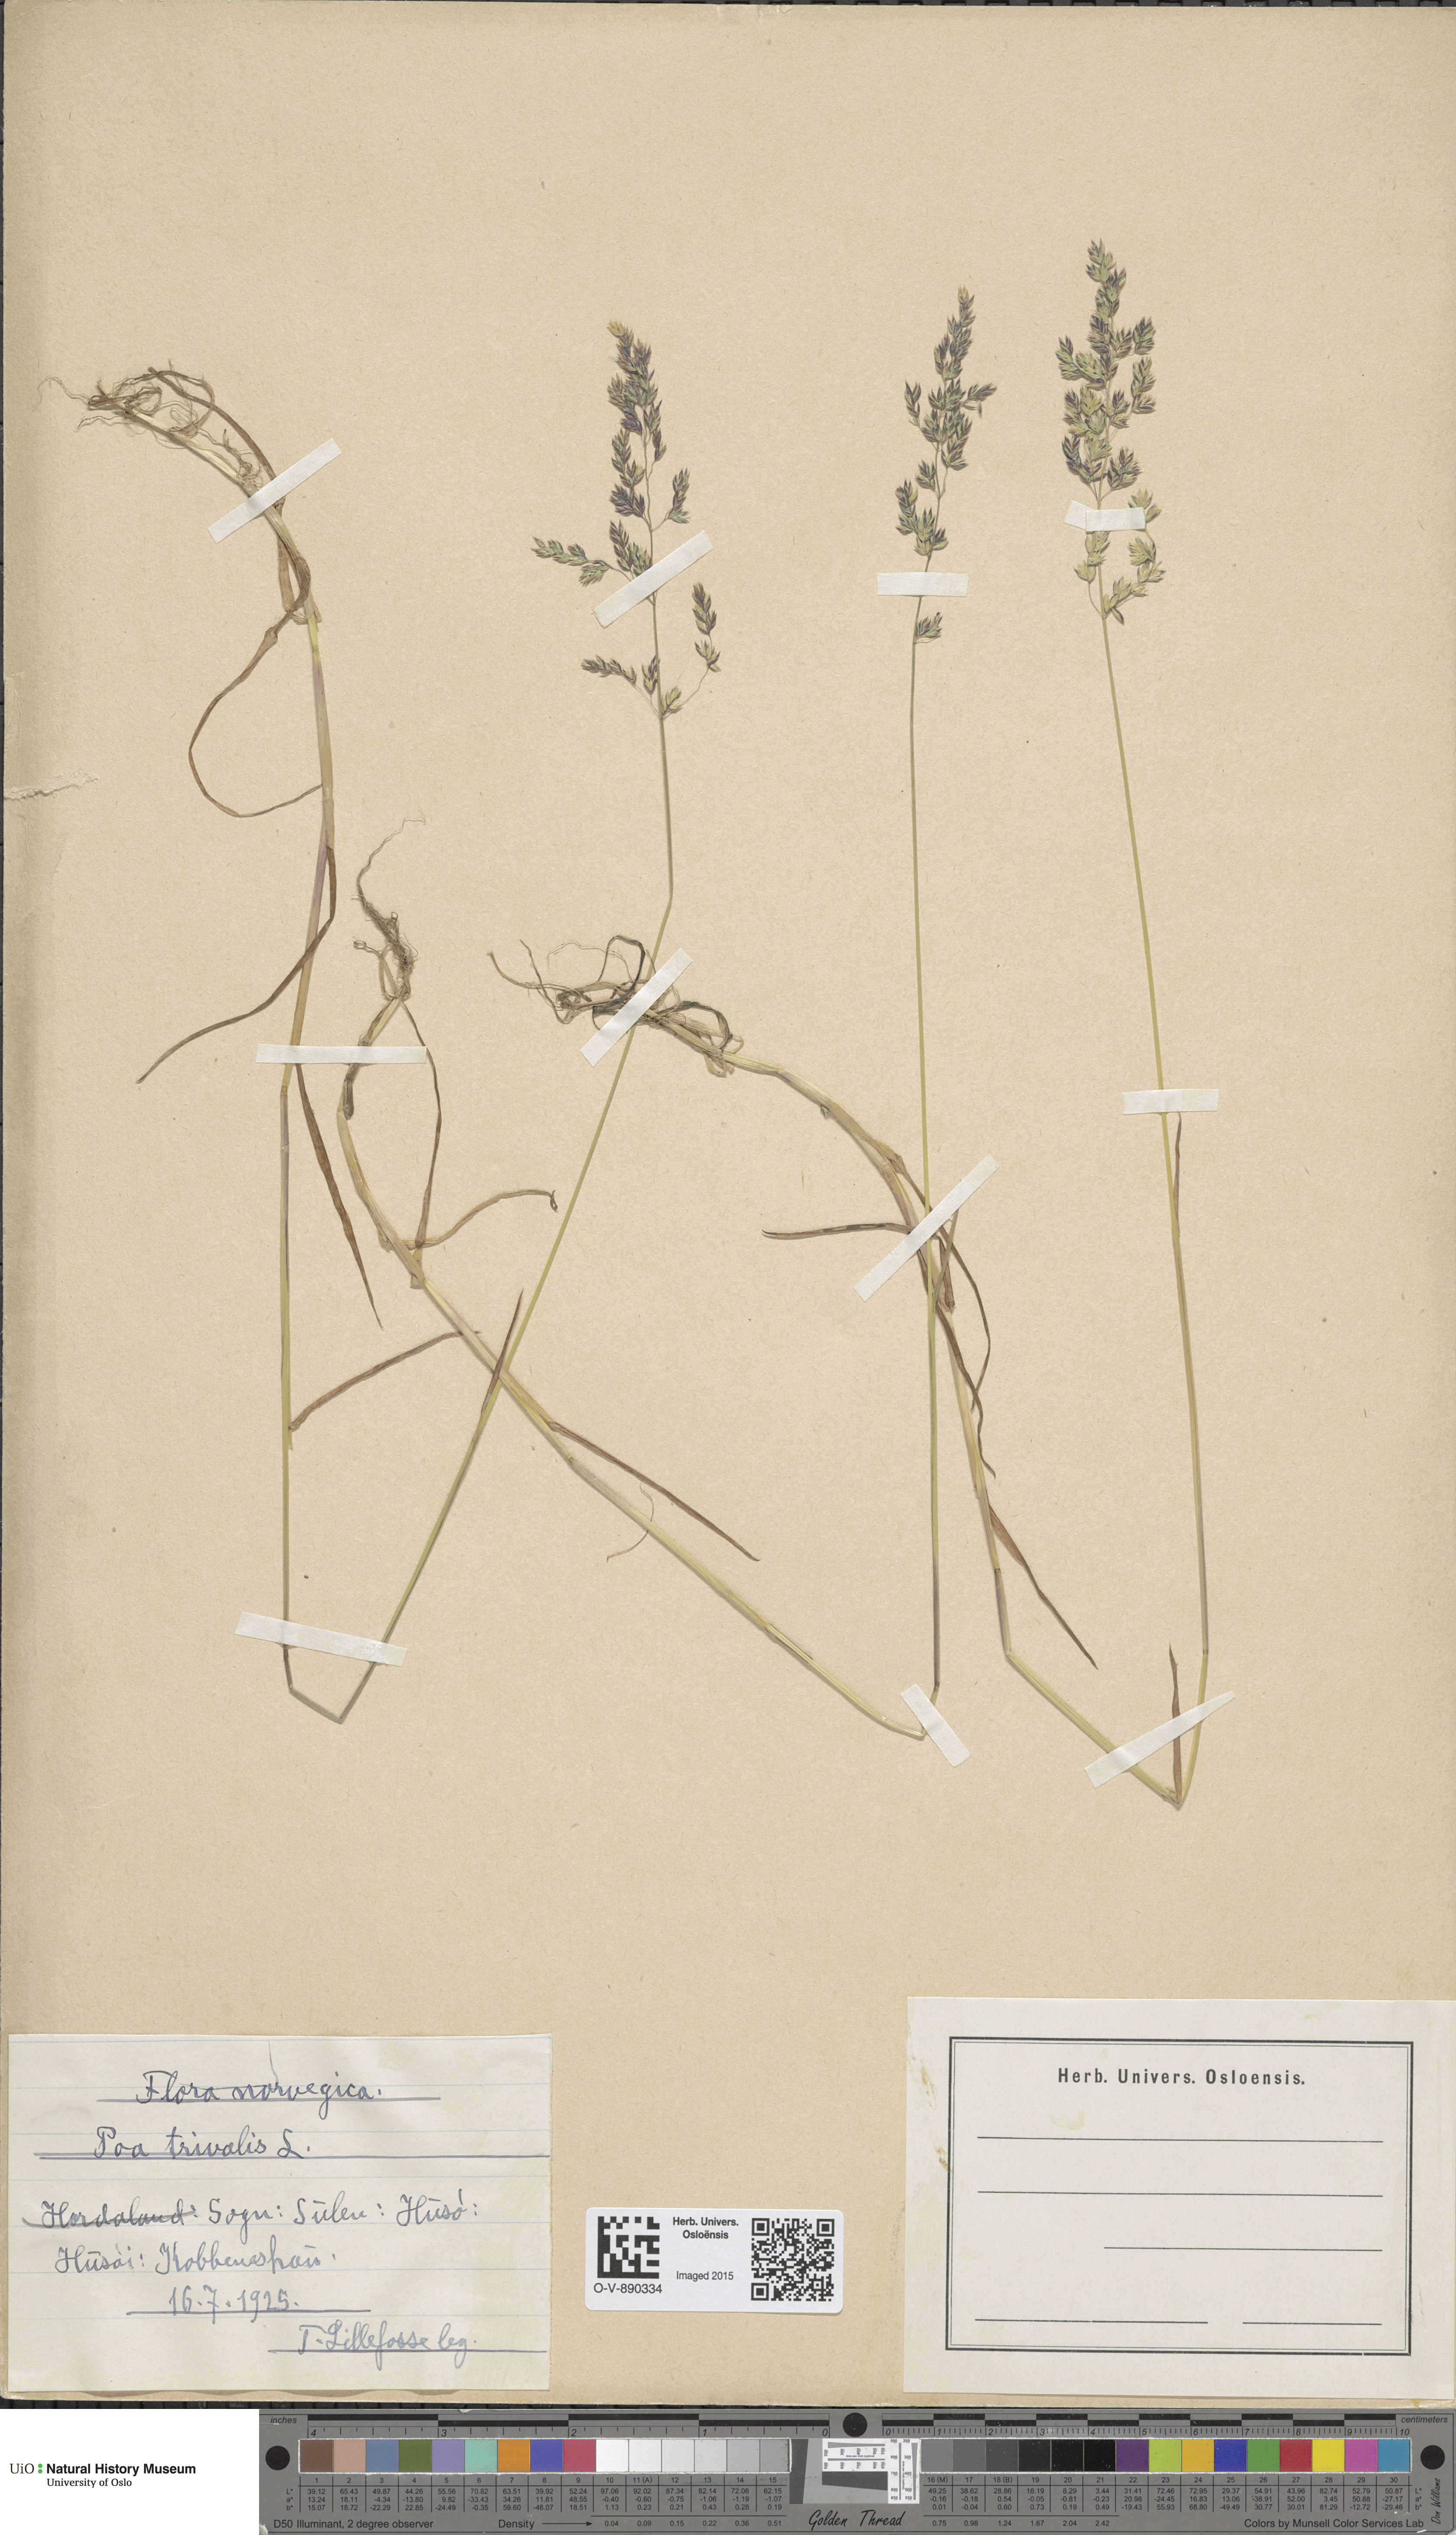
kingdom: Plantae
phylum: Tracheophyta
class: Liliopsida
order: Poales
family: Poaceae
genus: Poa
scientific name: Poa trivialis
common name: Rough bluegrass
